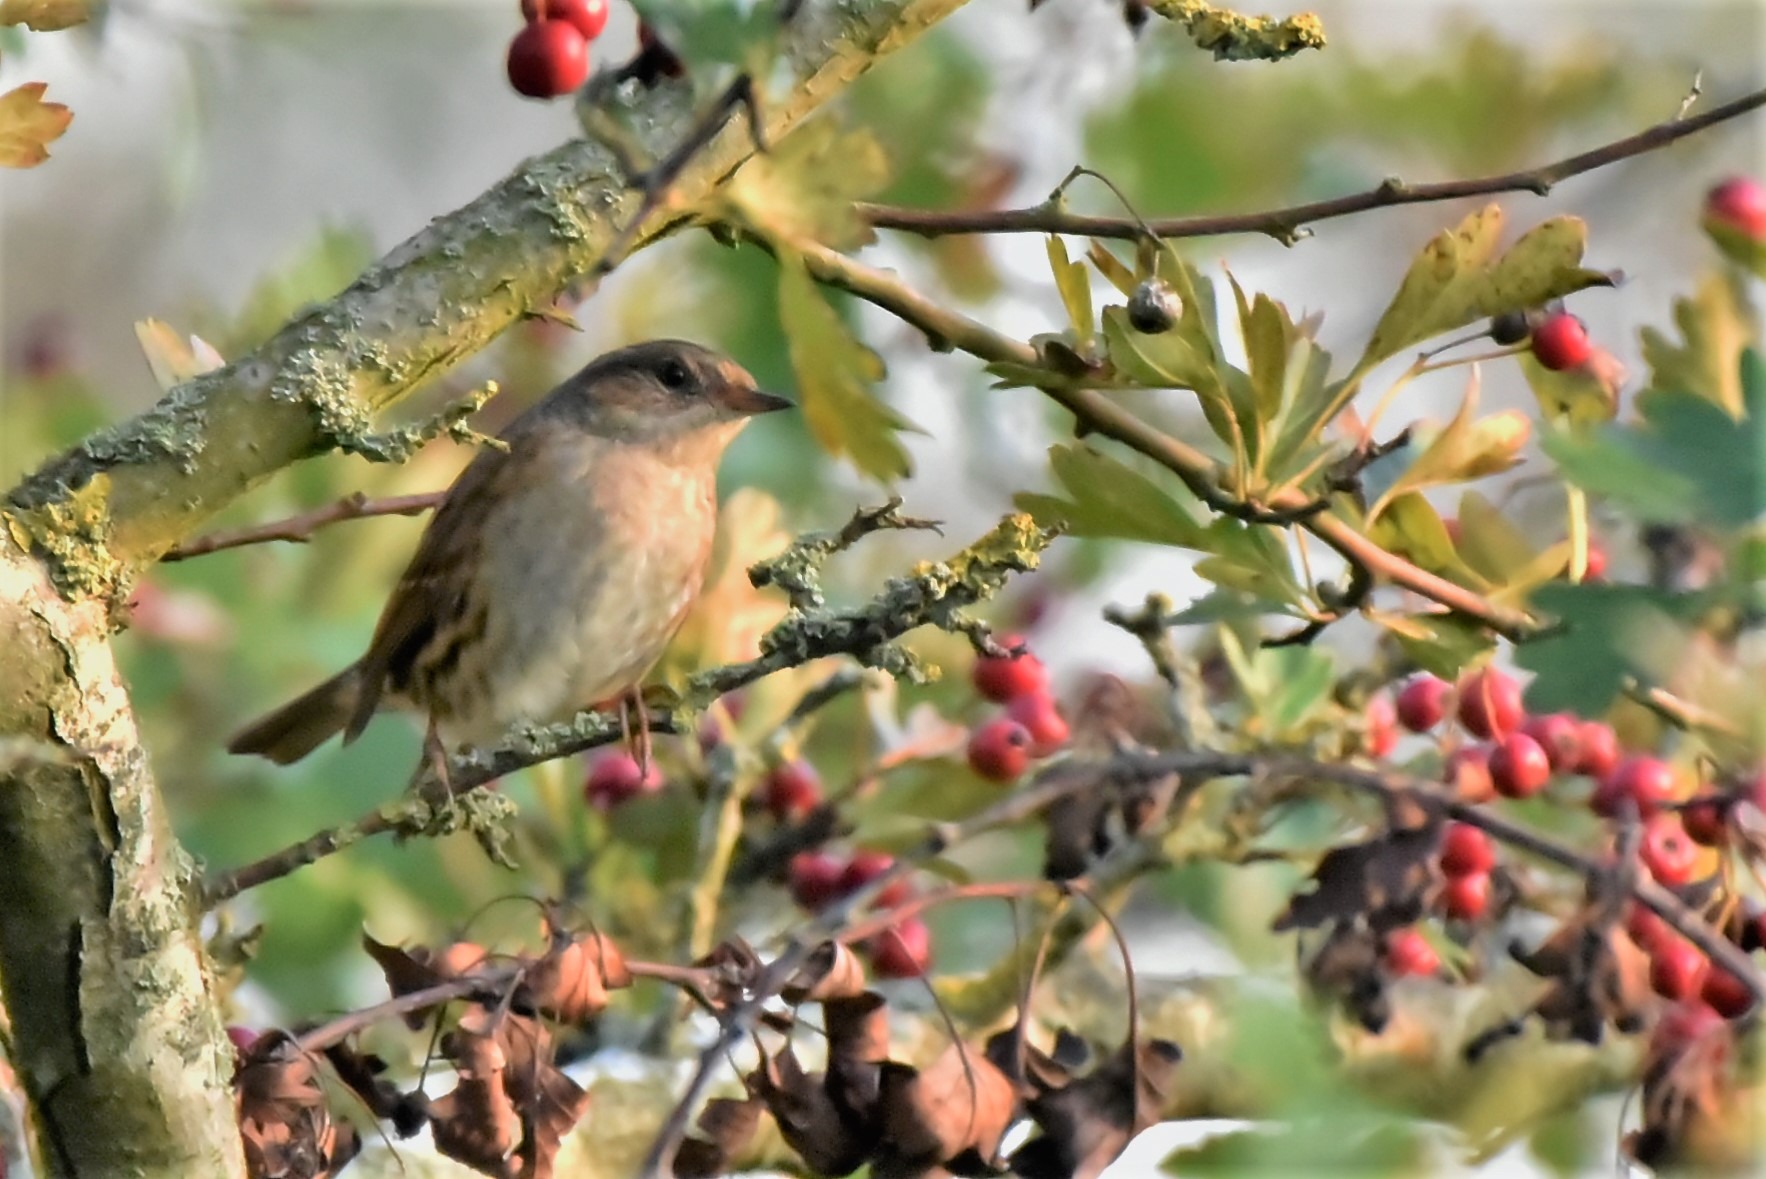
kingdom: Animalia
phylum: Chordata
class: Aves
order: Passeriformes
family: Prunellidae
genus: Prunella
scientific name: Prunella modularis
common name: Jernspurv
